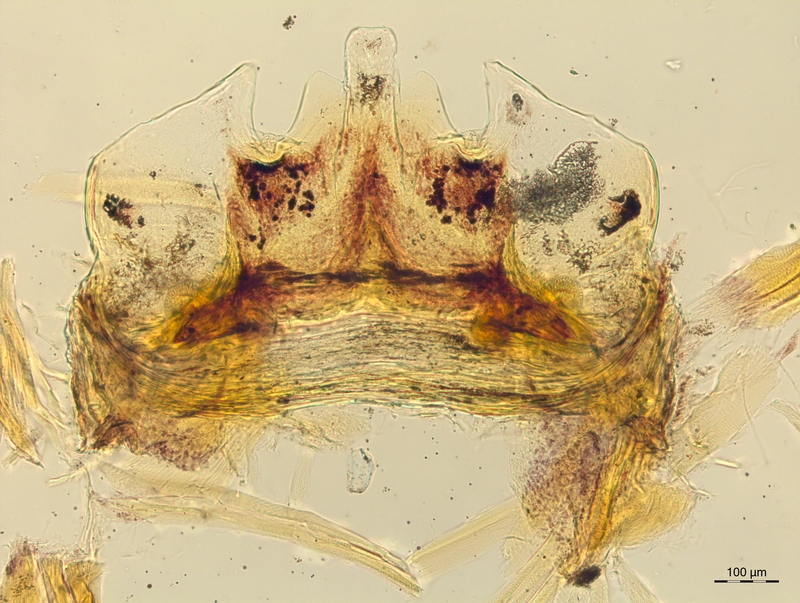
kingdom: Animalia
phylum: Arthropoda
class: Diplopoda
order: Chordeumatida
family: Craspedosomatidae
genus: Craspedosoma
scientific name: Craspedosoma taurinorum
